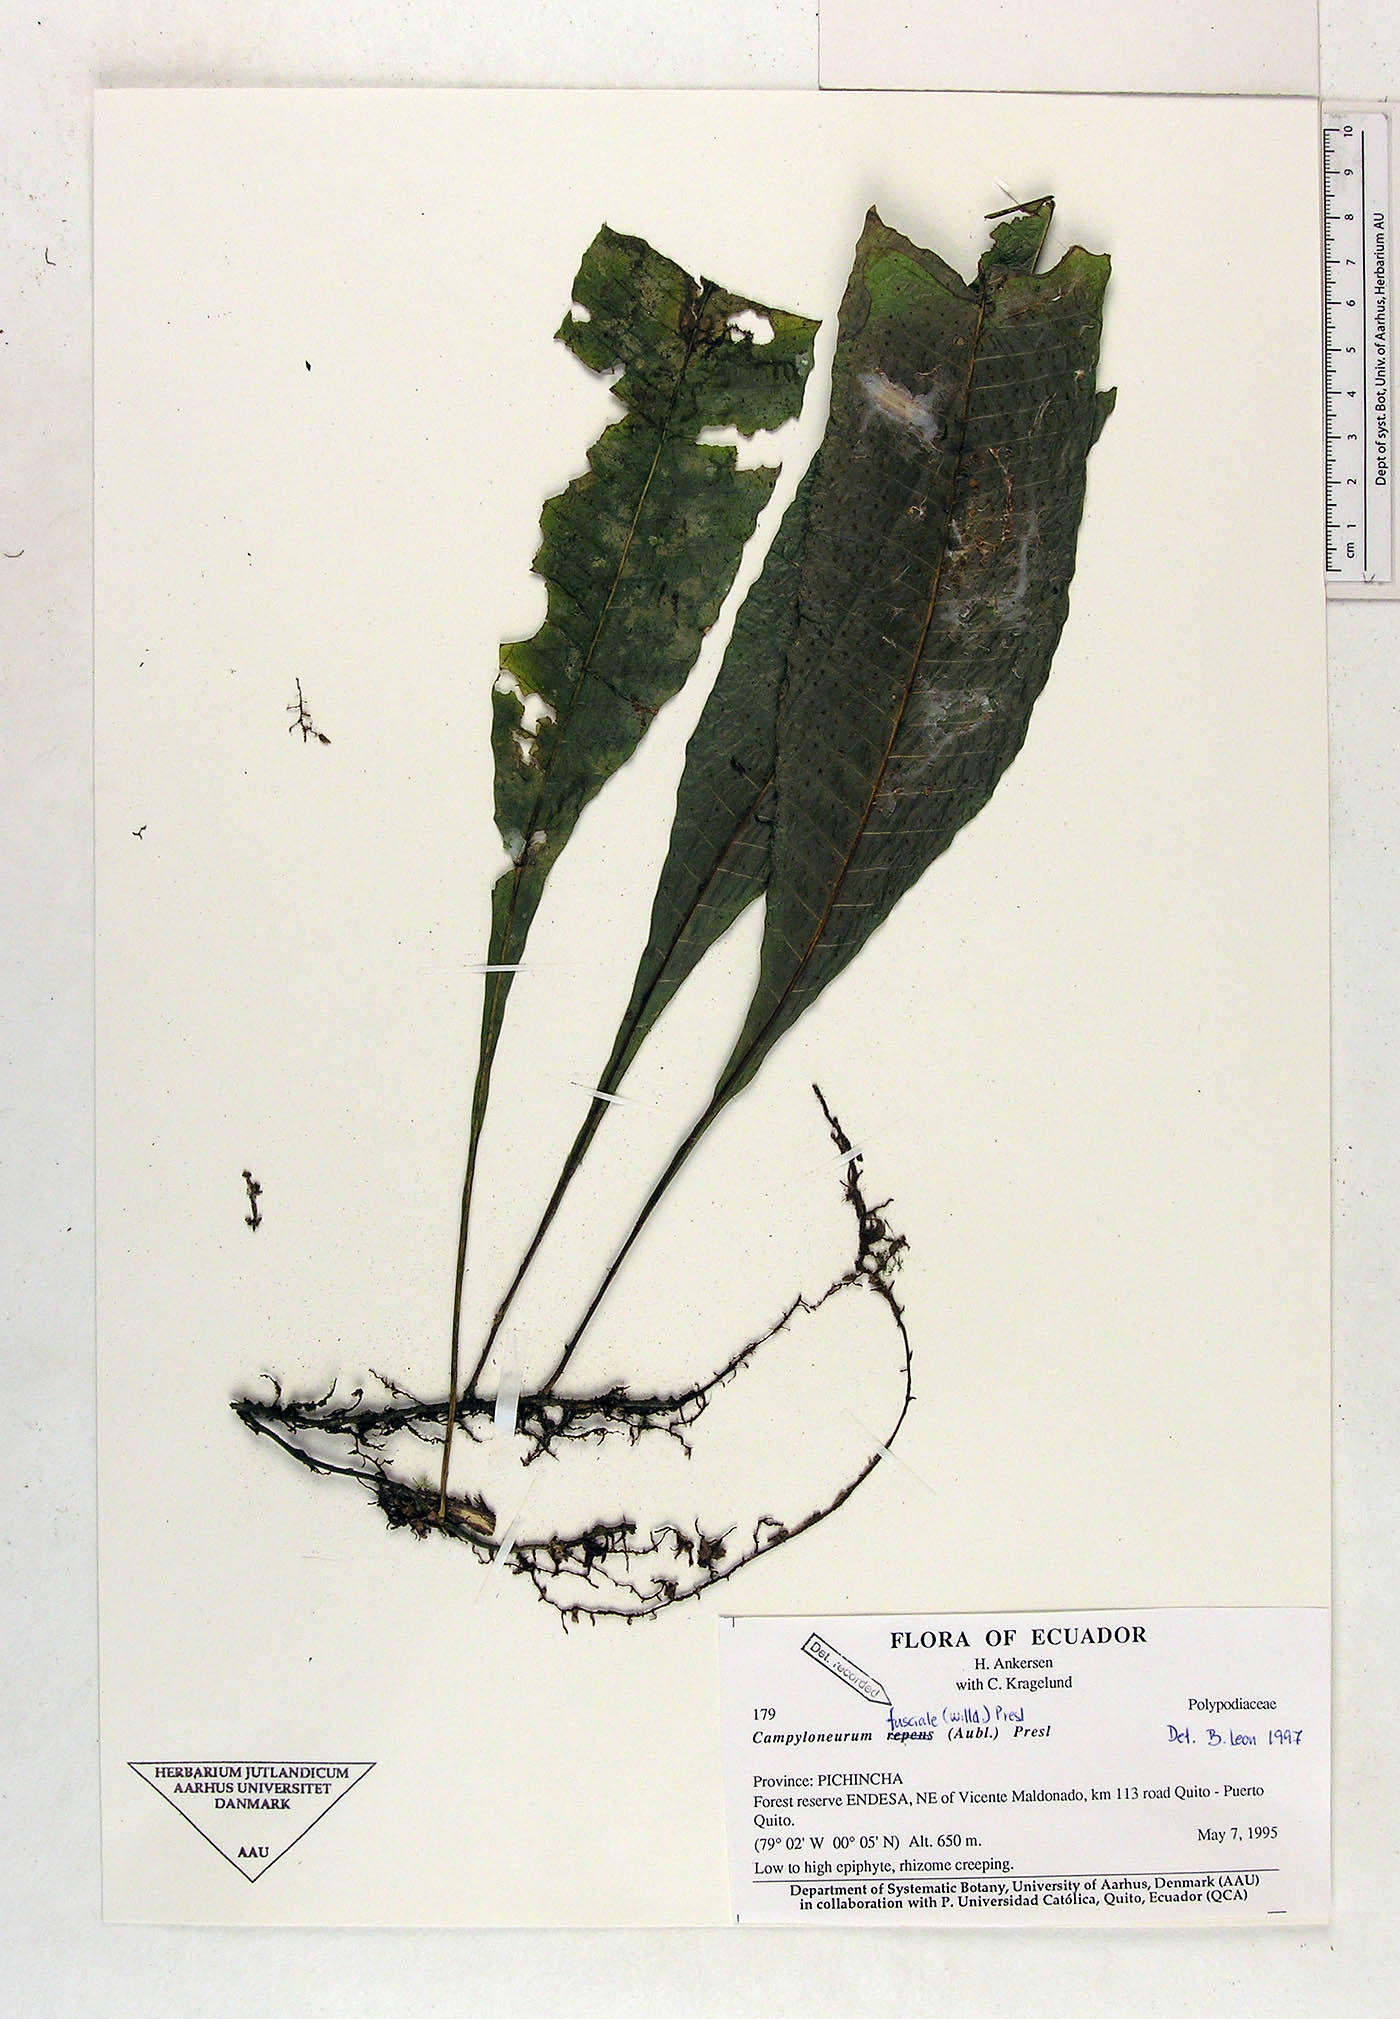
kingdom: Plantae
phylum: Tracheophyta
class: Polypodiopsida
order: Polypodiales
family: Polypodiaceae
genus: Campyloneurum
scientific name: Campyloneurum repens
